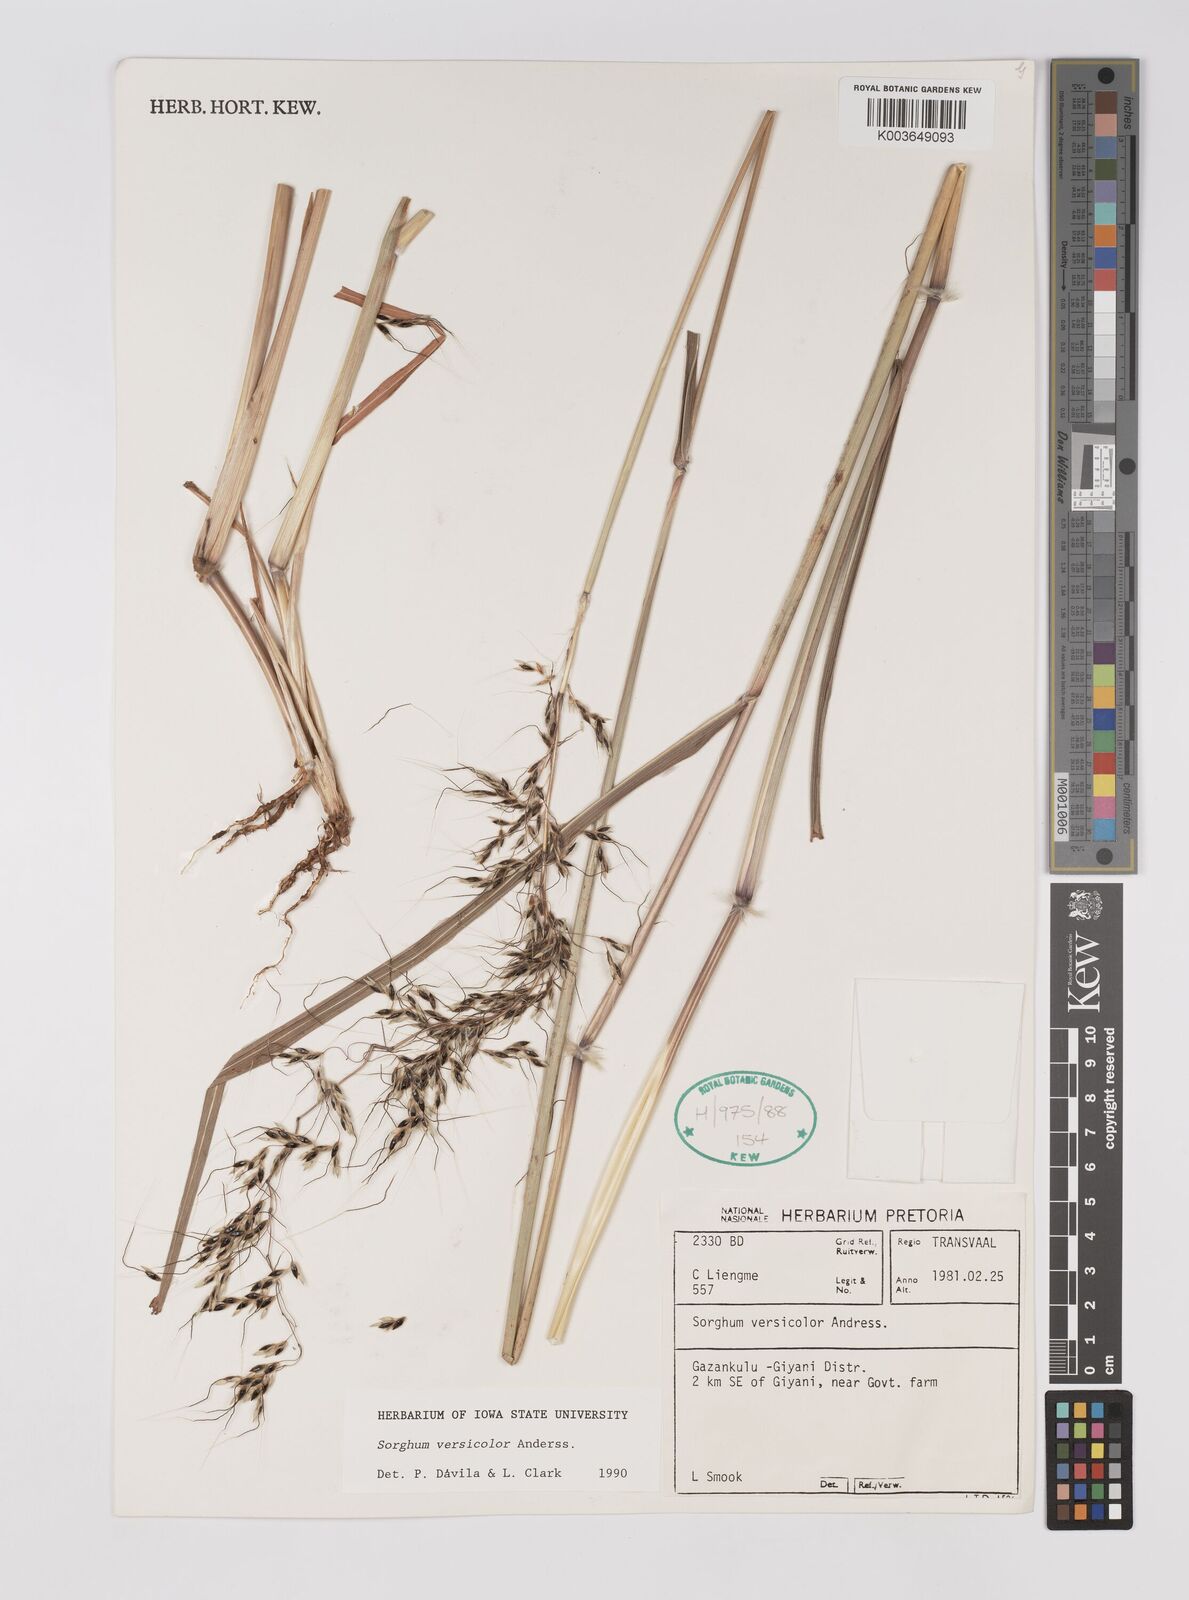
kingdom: Plantae
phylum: Tracheophyta
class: Liliopsida
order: Poales
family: Poaceae
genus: Sarga
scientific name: Sarga versicolor
